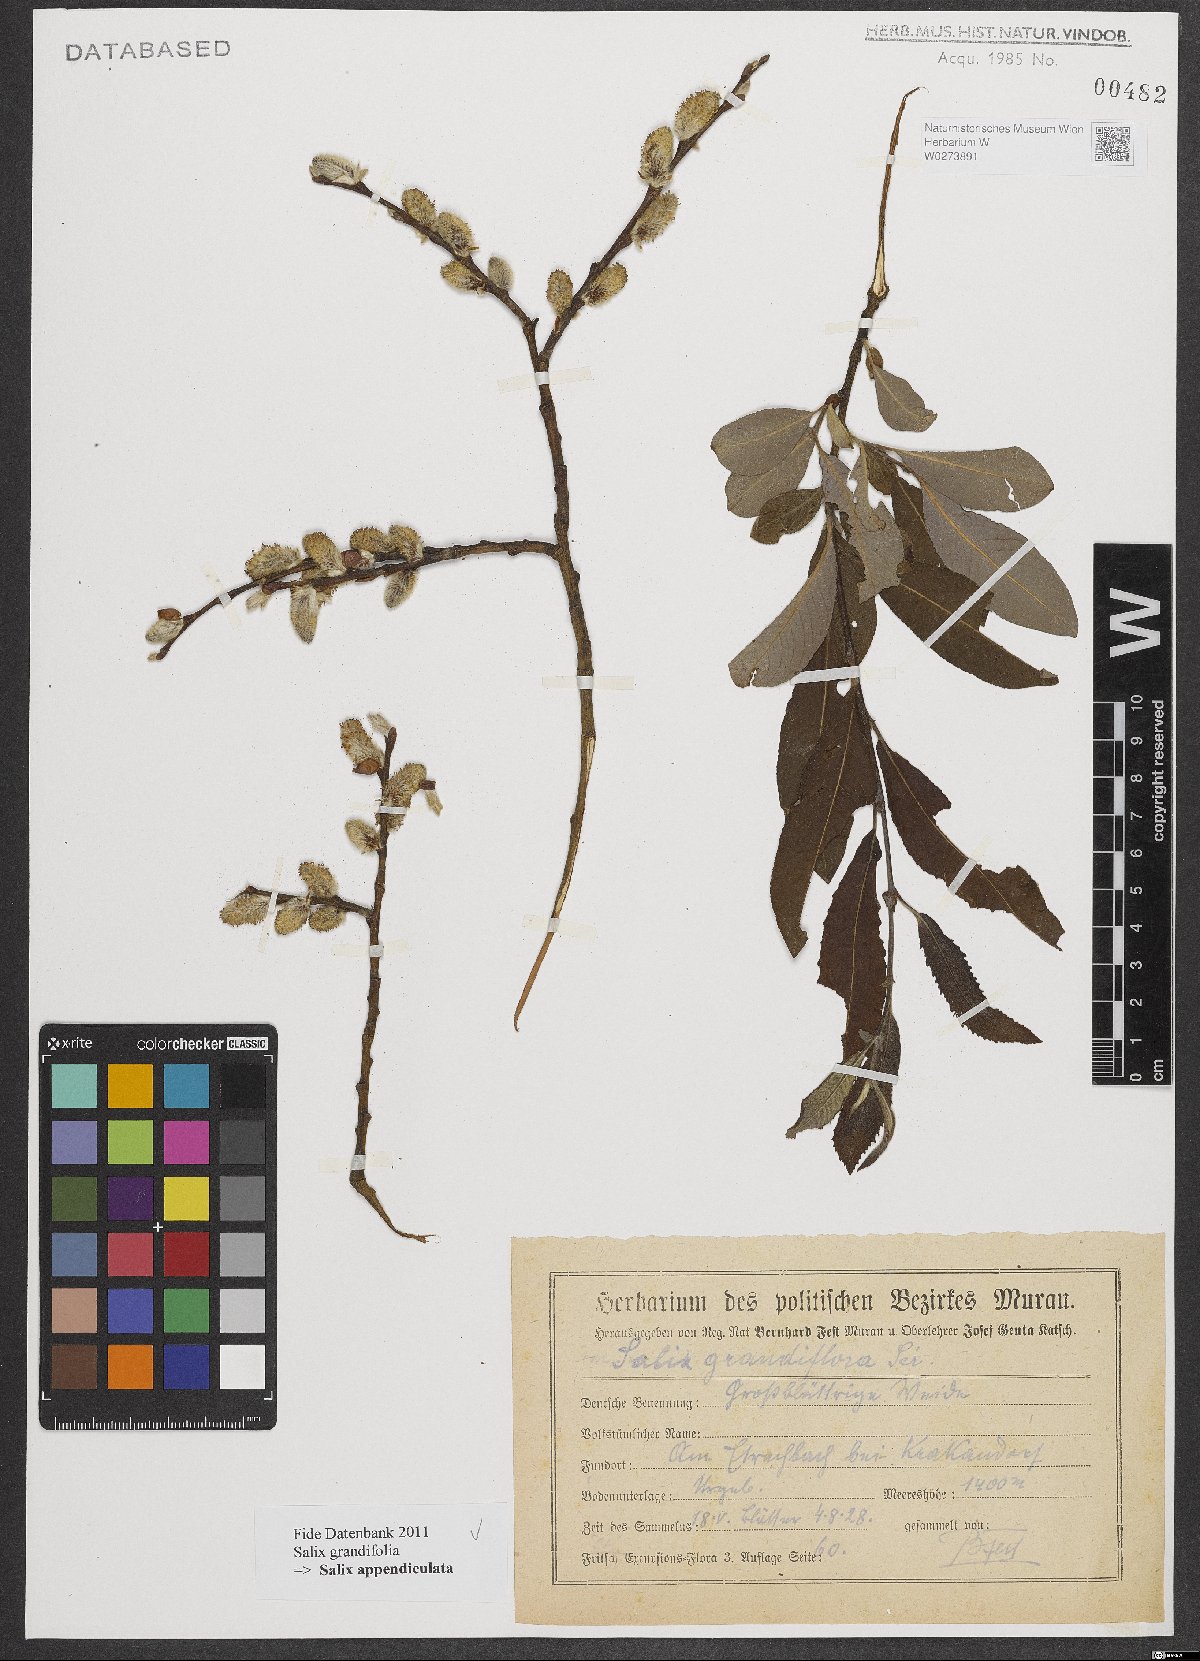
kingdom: Plantae
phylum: Tracheophyta
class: Magnoliopsida
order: Malpighiales
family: Salicaceae
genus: Salix
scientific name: Salix appendiculata
